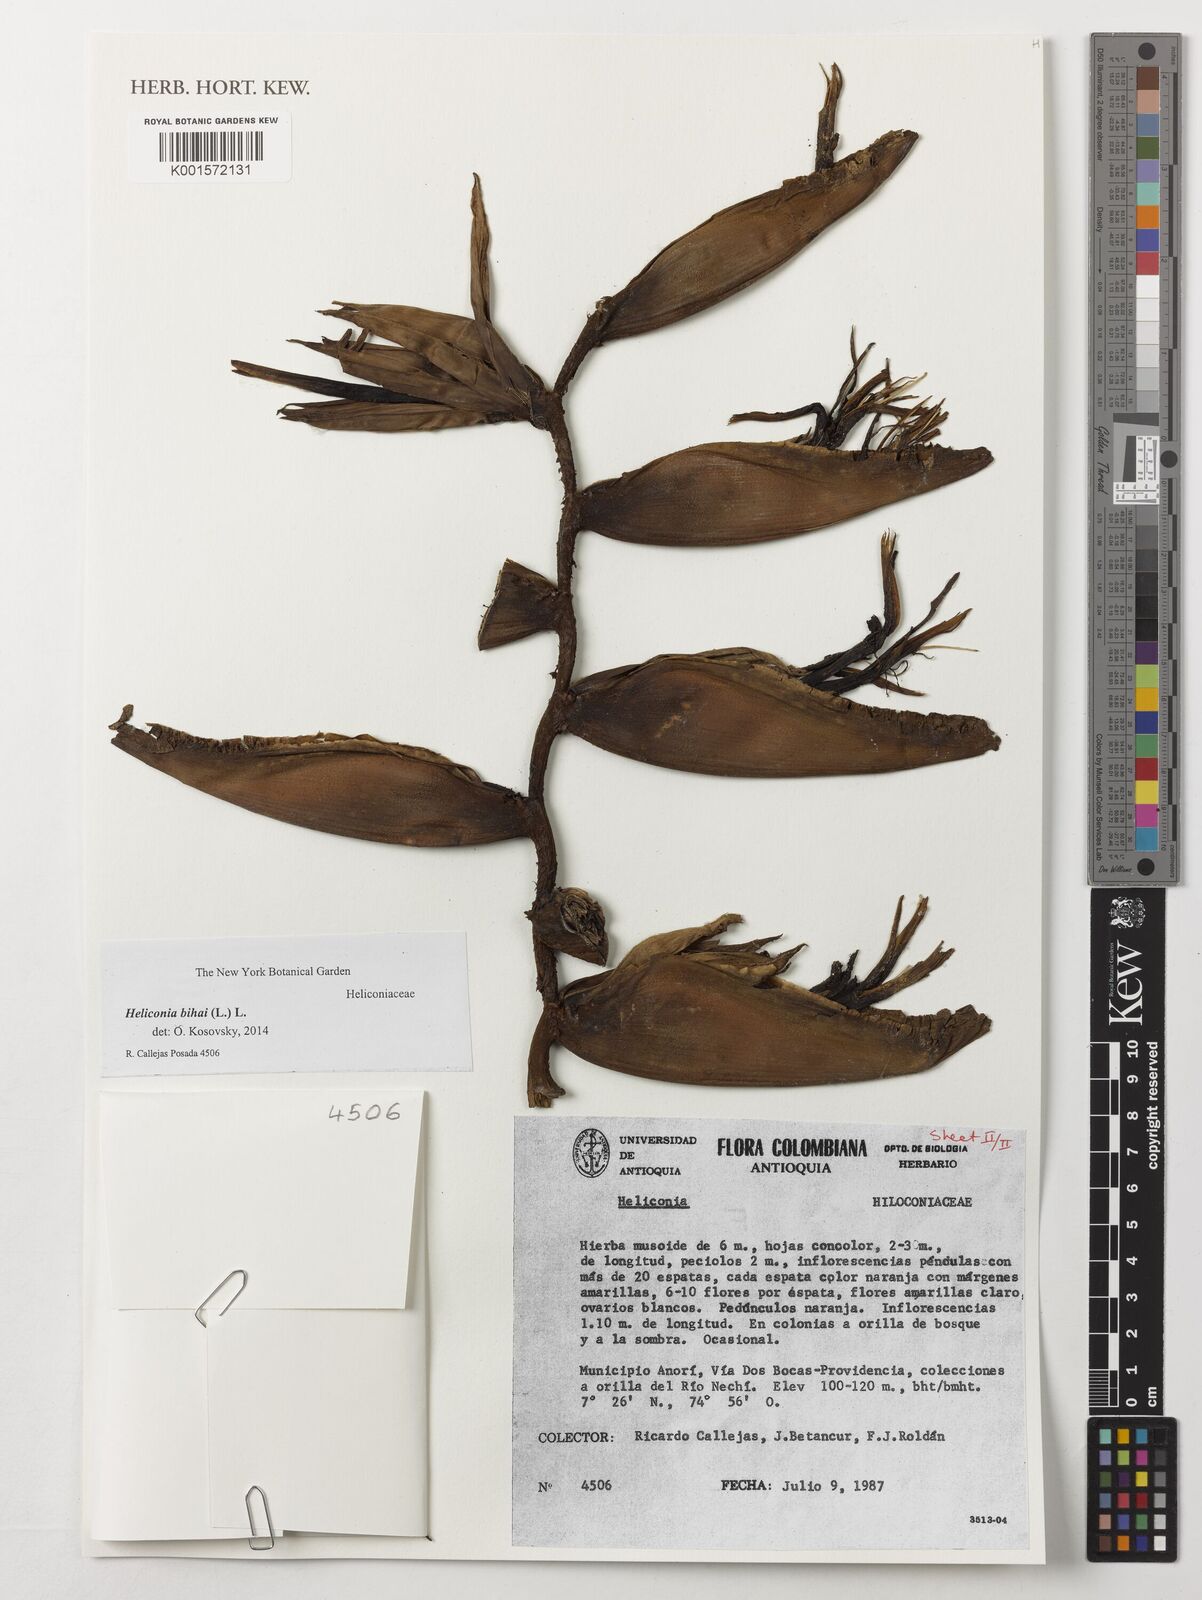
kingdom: Plantae
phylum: Tracheophyta
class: Liliopsida
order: Zingiberales
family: Heliconiaceae
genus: Heliconia
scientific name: Heliconia bihai
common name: Macaw flower
